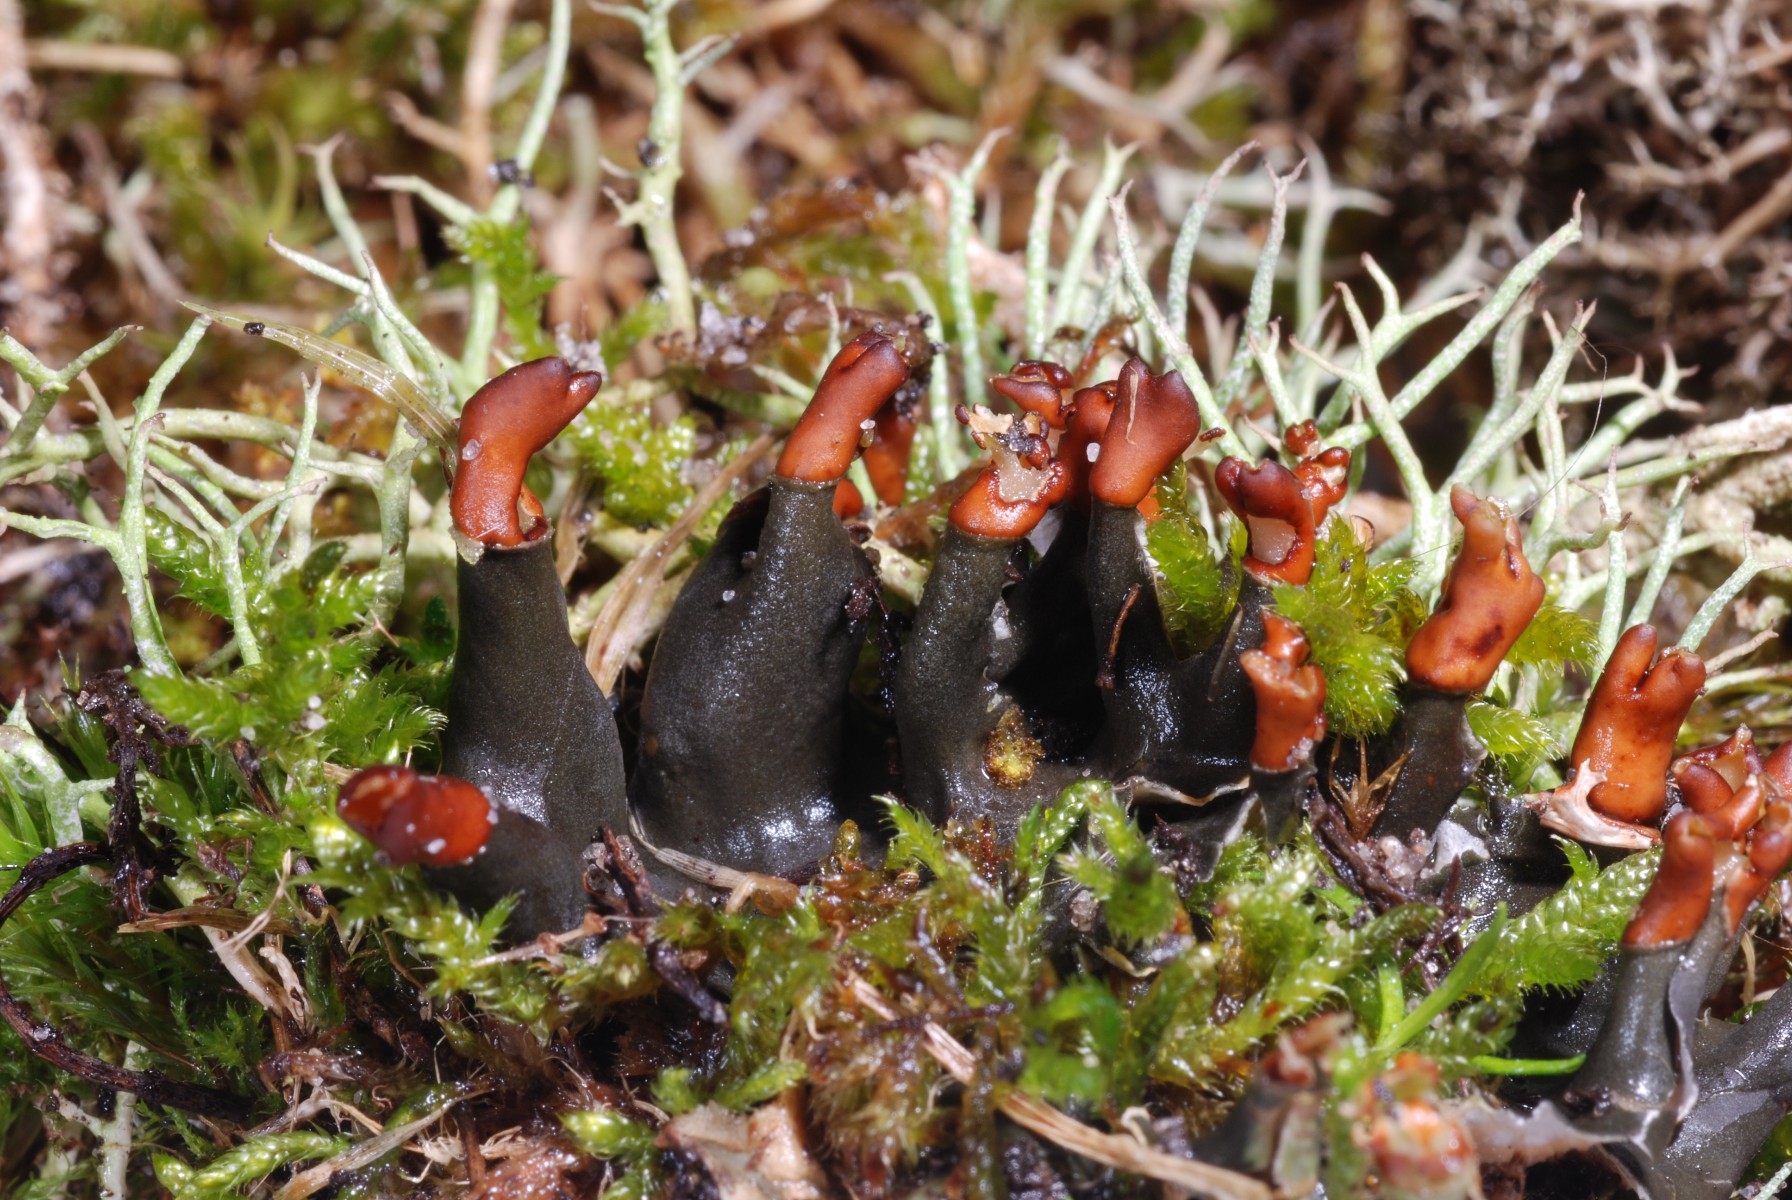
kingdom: Fungi
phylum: Ascomycota
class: Lecanoromycetes
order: Peltigerales
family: Peltigeraceae
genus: Peltigera
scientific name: Peltigera didactyla
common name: liden skjoldlav
